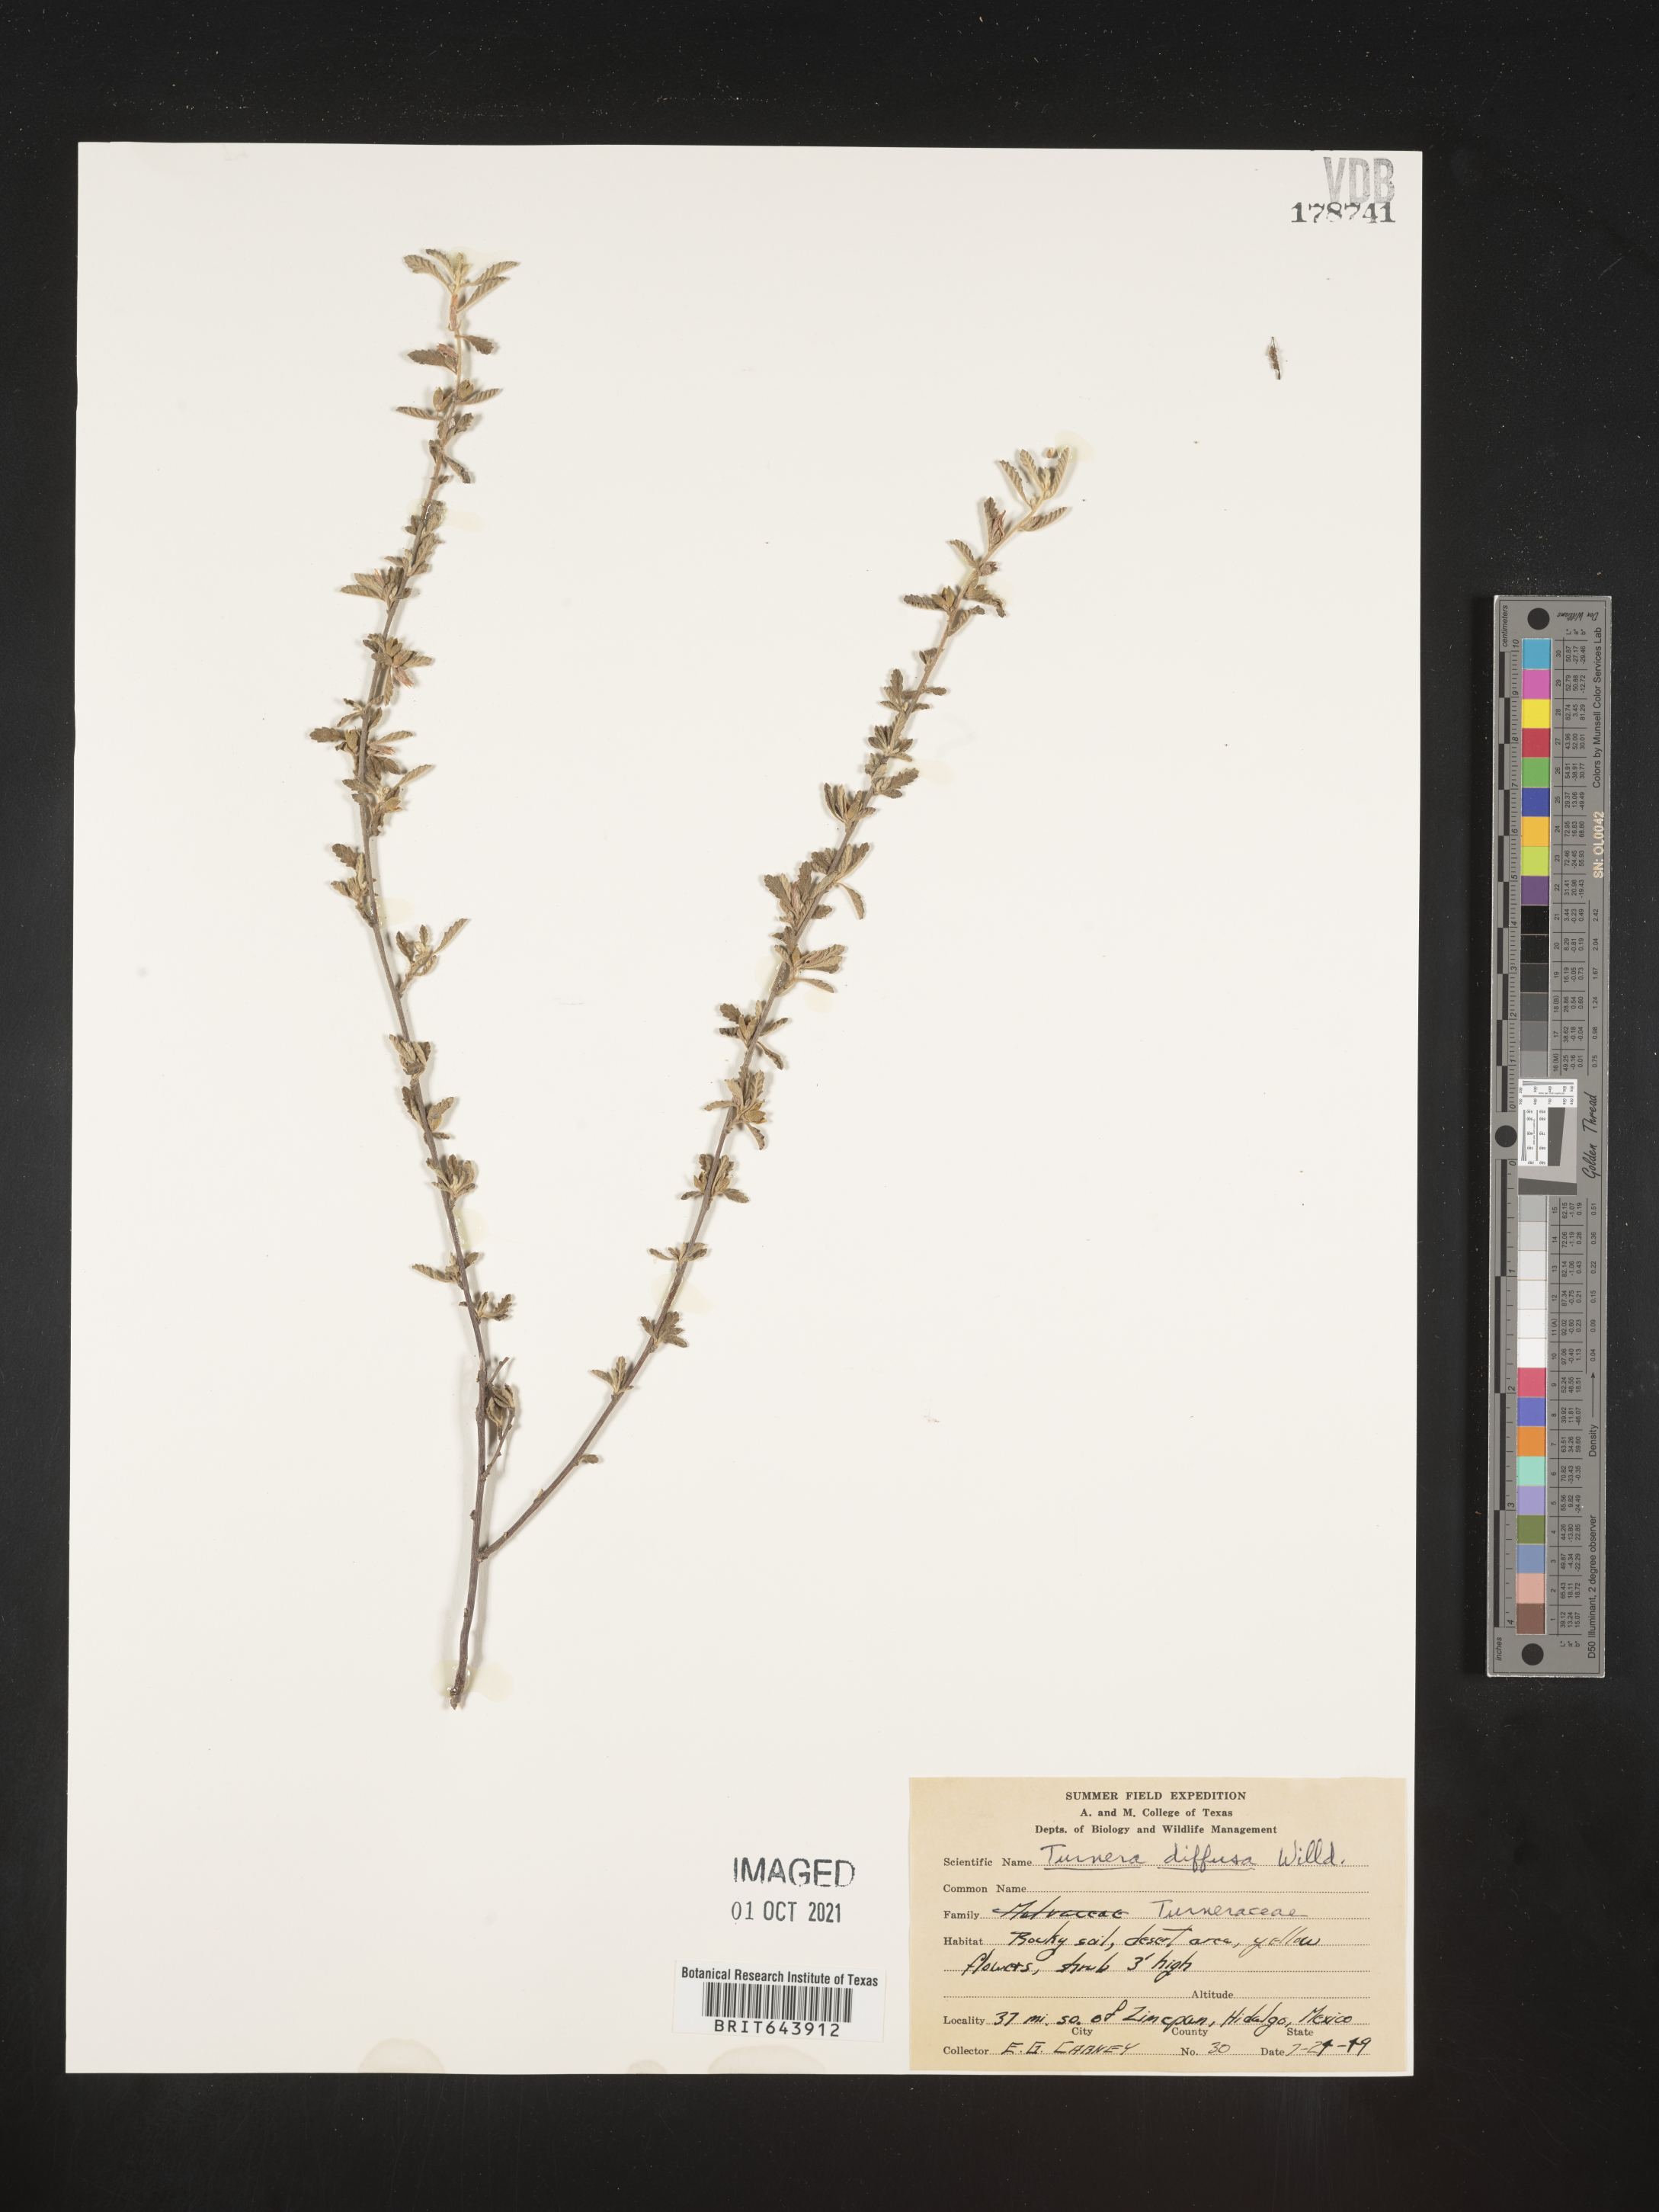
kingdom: Plantae
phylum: Tracheophyta
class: Magnoliopsida
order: Malpighiales
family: Turneraceae
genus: Turnera
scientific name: Turnera
